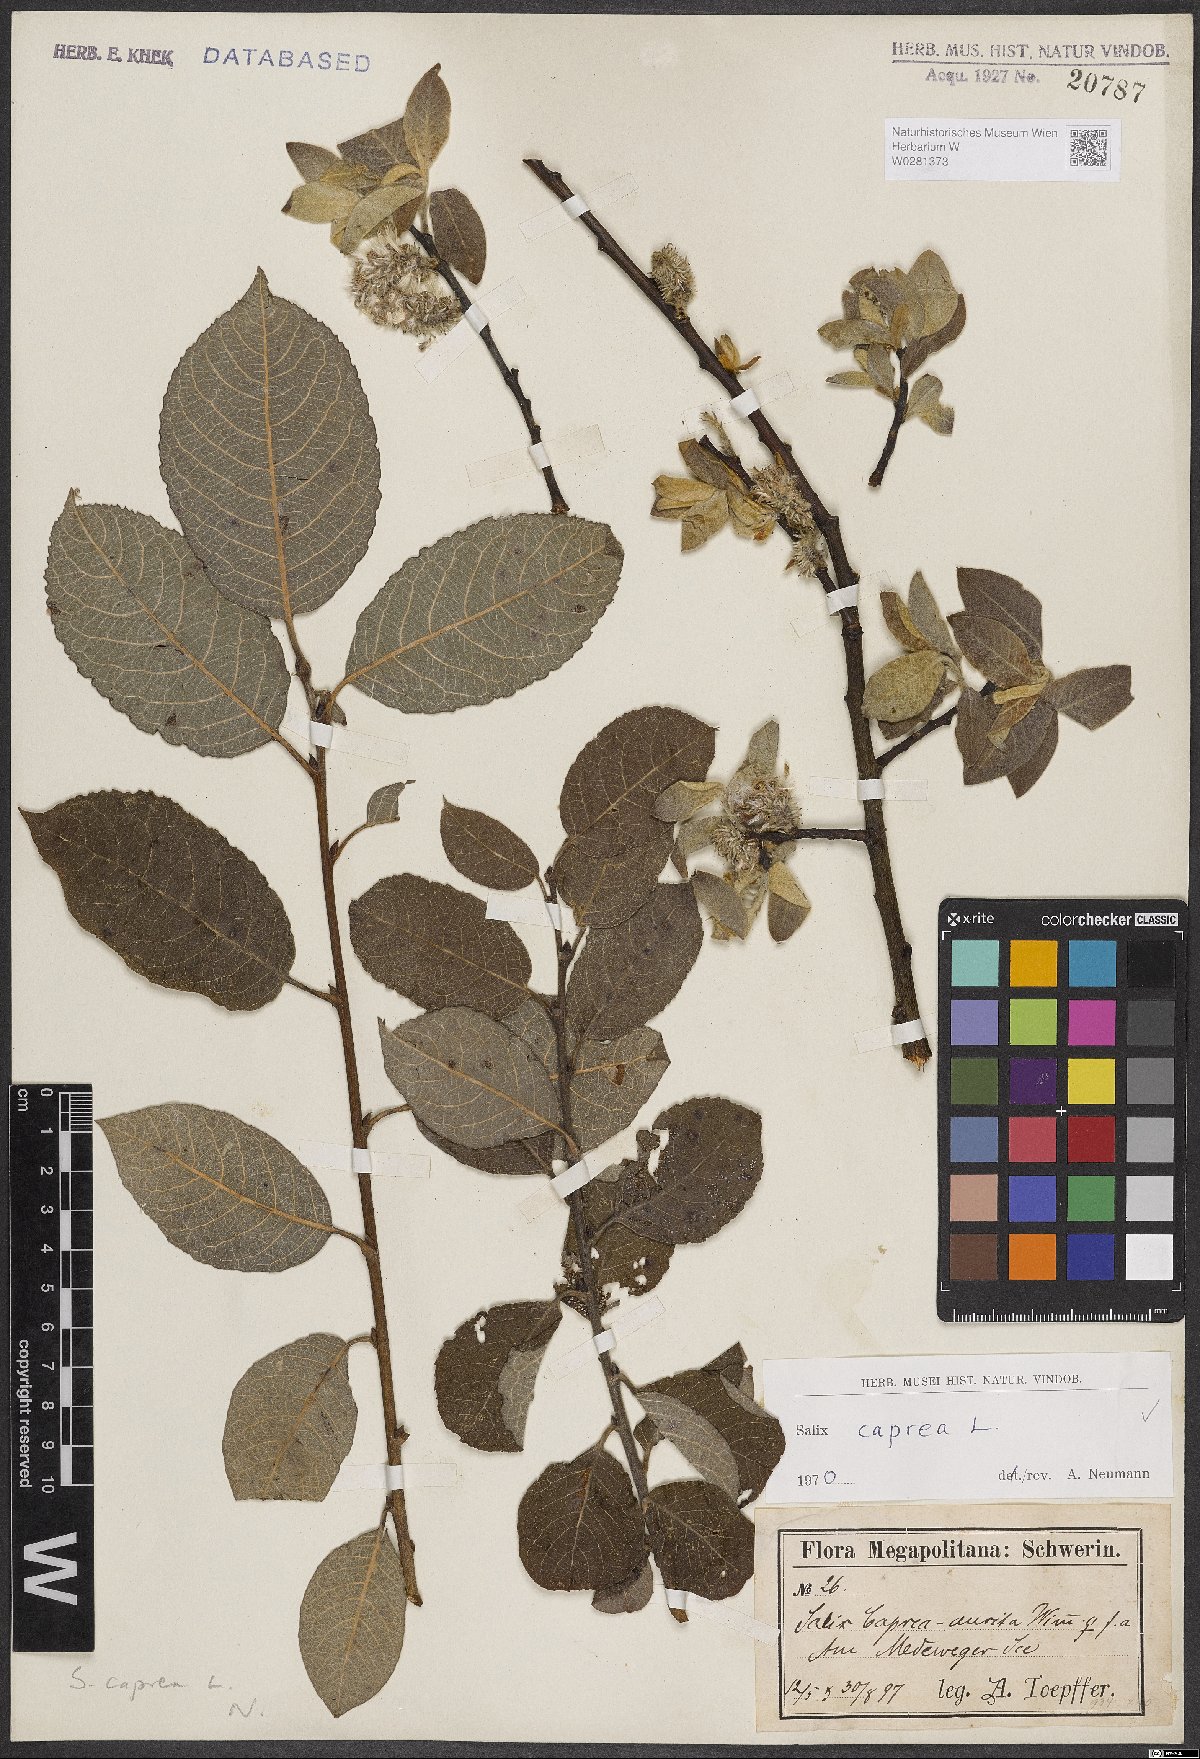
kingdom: Plantae
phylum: Tracheophyta
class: Magnoliopsida
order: Malpighiales
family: Salicaceae
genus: Salix
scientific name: Salix caprea
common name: Goat willow
